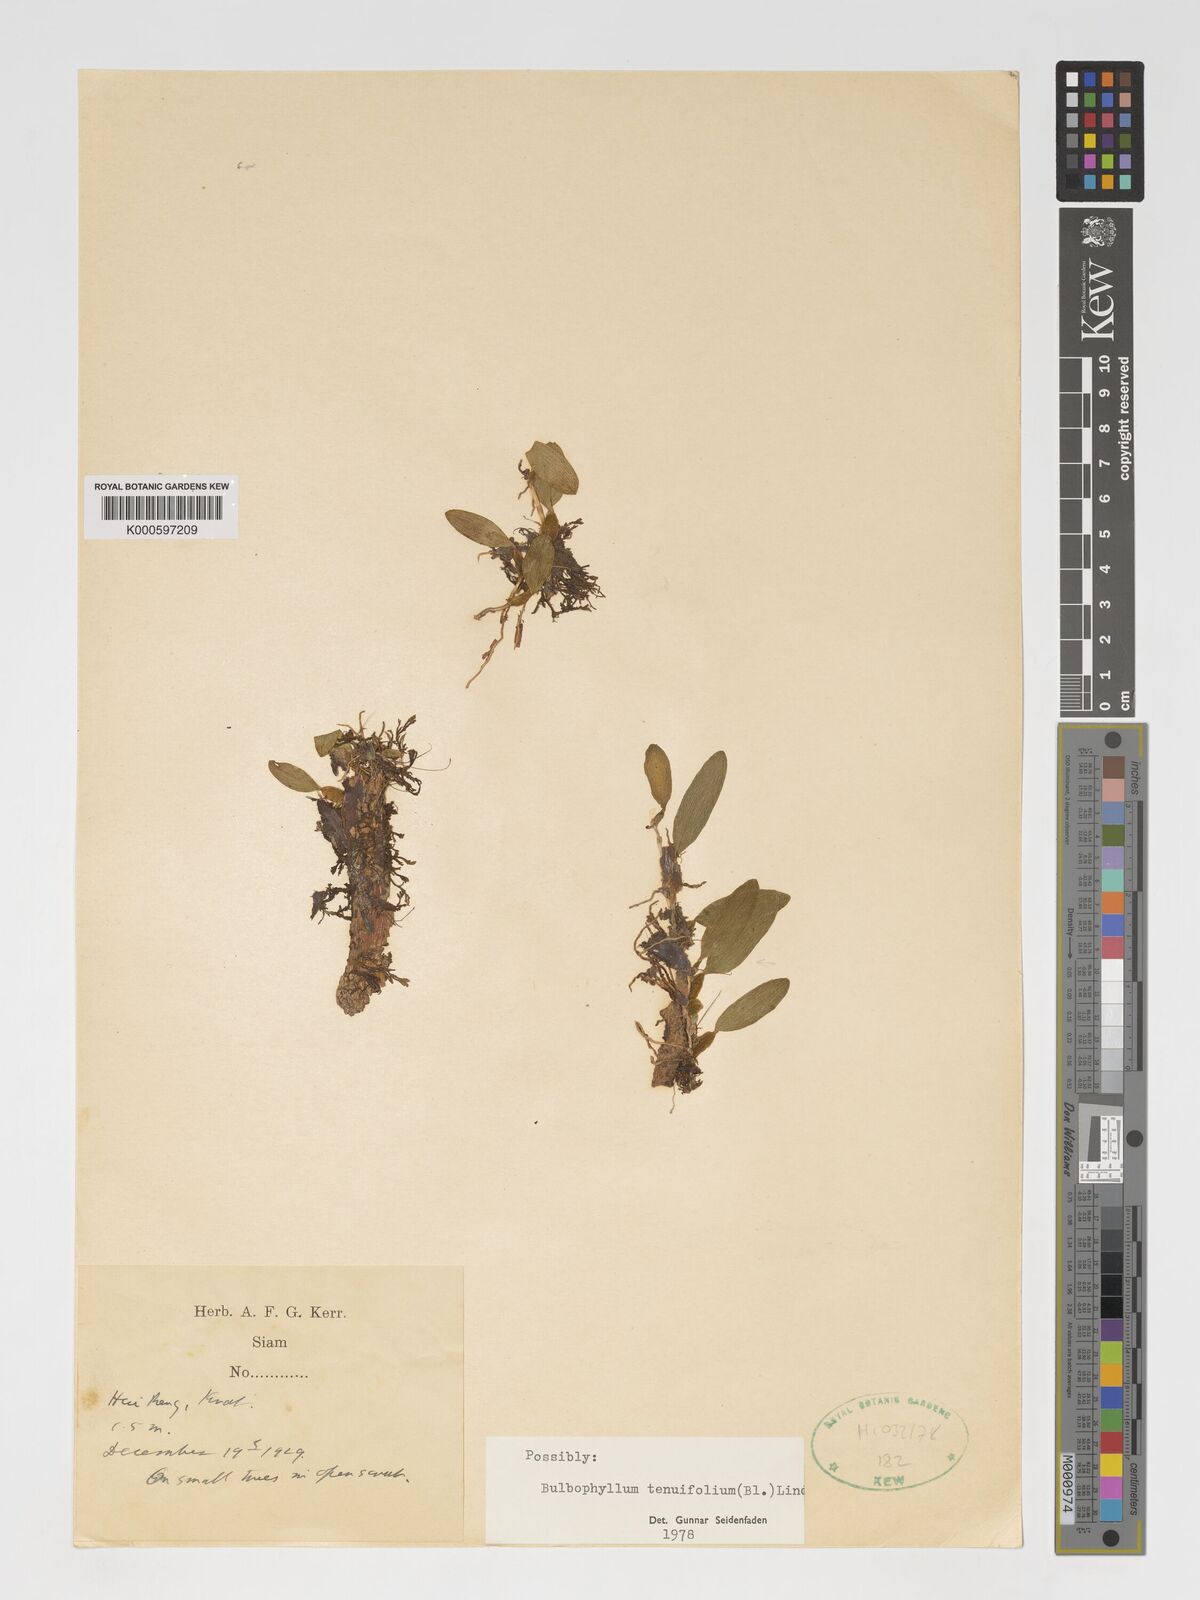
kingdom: Plantae
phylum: Tracheophyta
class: Liliopsida
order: Asparagales
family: Orchidaceae
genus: Bulbophyllum
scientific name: Bulbophyllum tenuifolium
